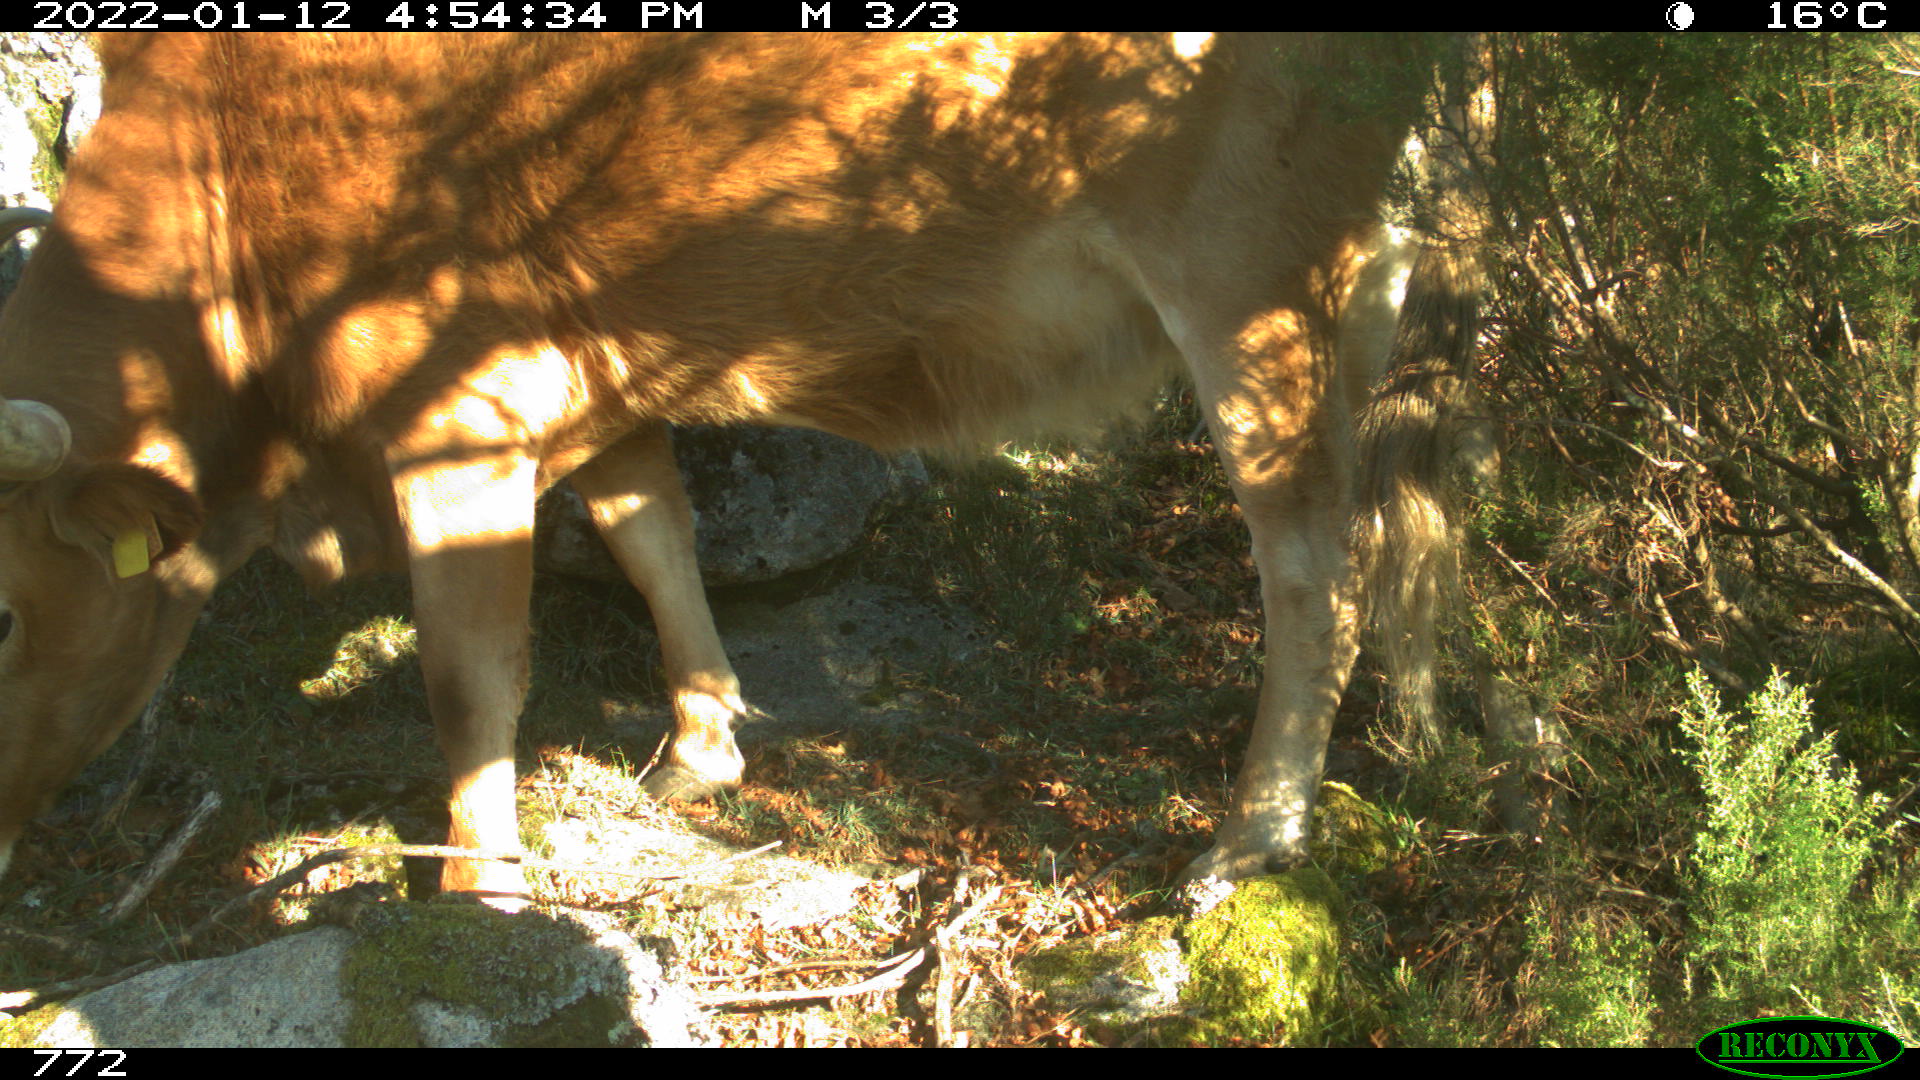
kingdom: Animalia
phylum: Chordata
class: Mammalia
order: Artiodactyla
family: Bovidae
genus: Bos
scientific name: Bos taurus
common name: Domesticated cattle
